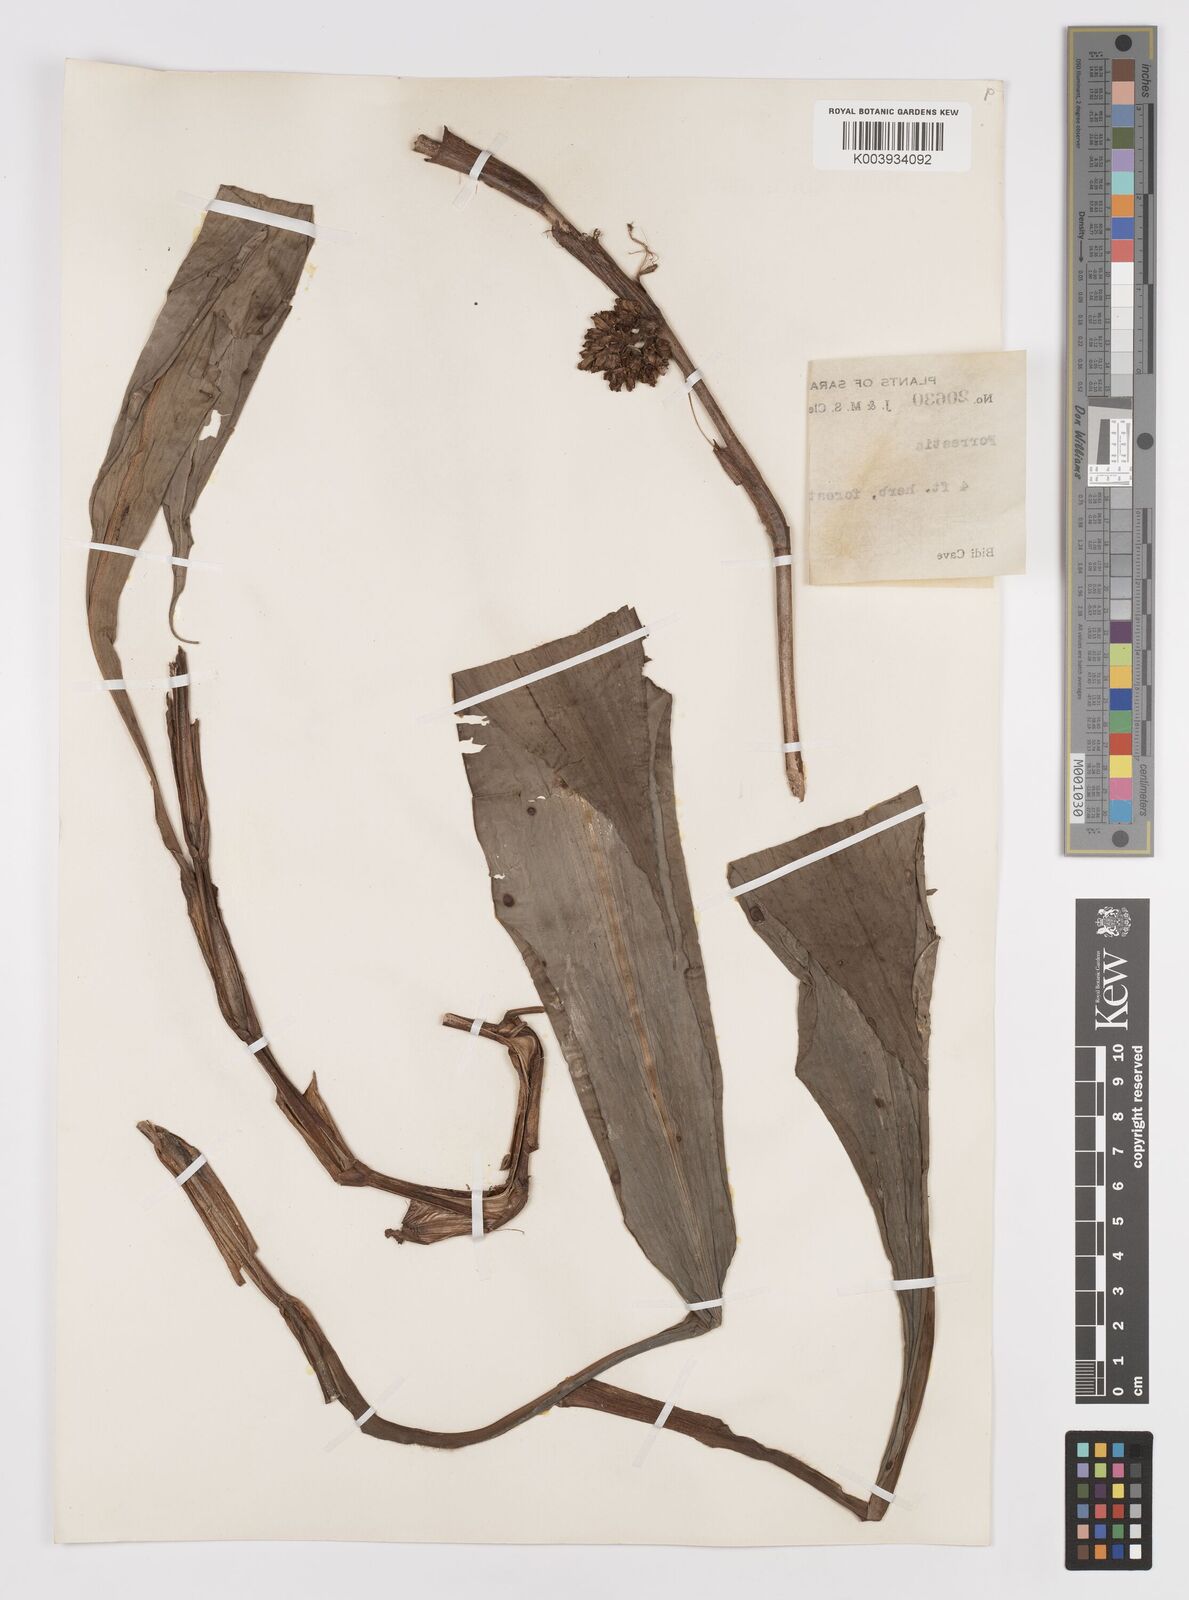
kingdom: Plantae
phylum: Tracheophyta
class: Liliopsida
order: Commelinales
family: Commelinaceae
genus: Amischotolype
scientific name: Amischotolype
